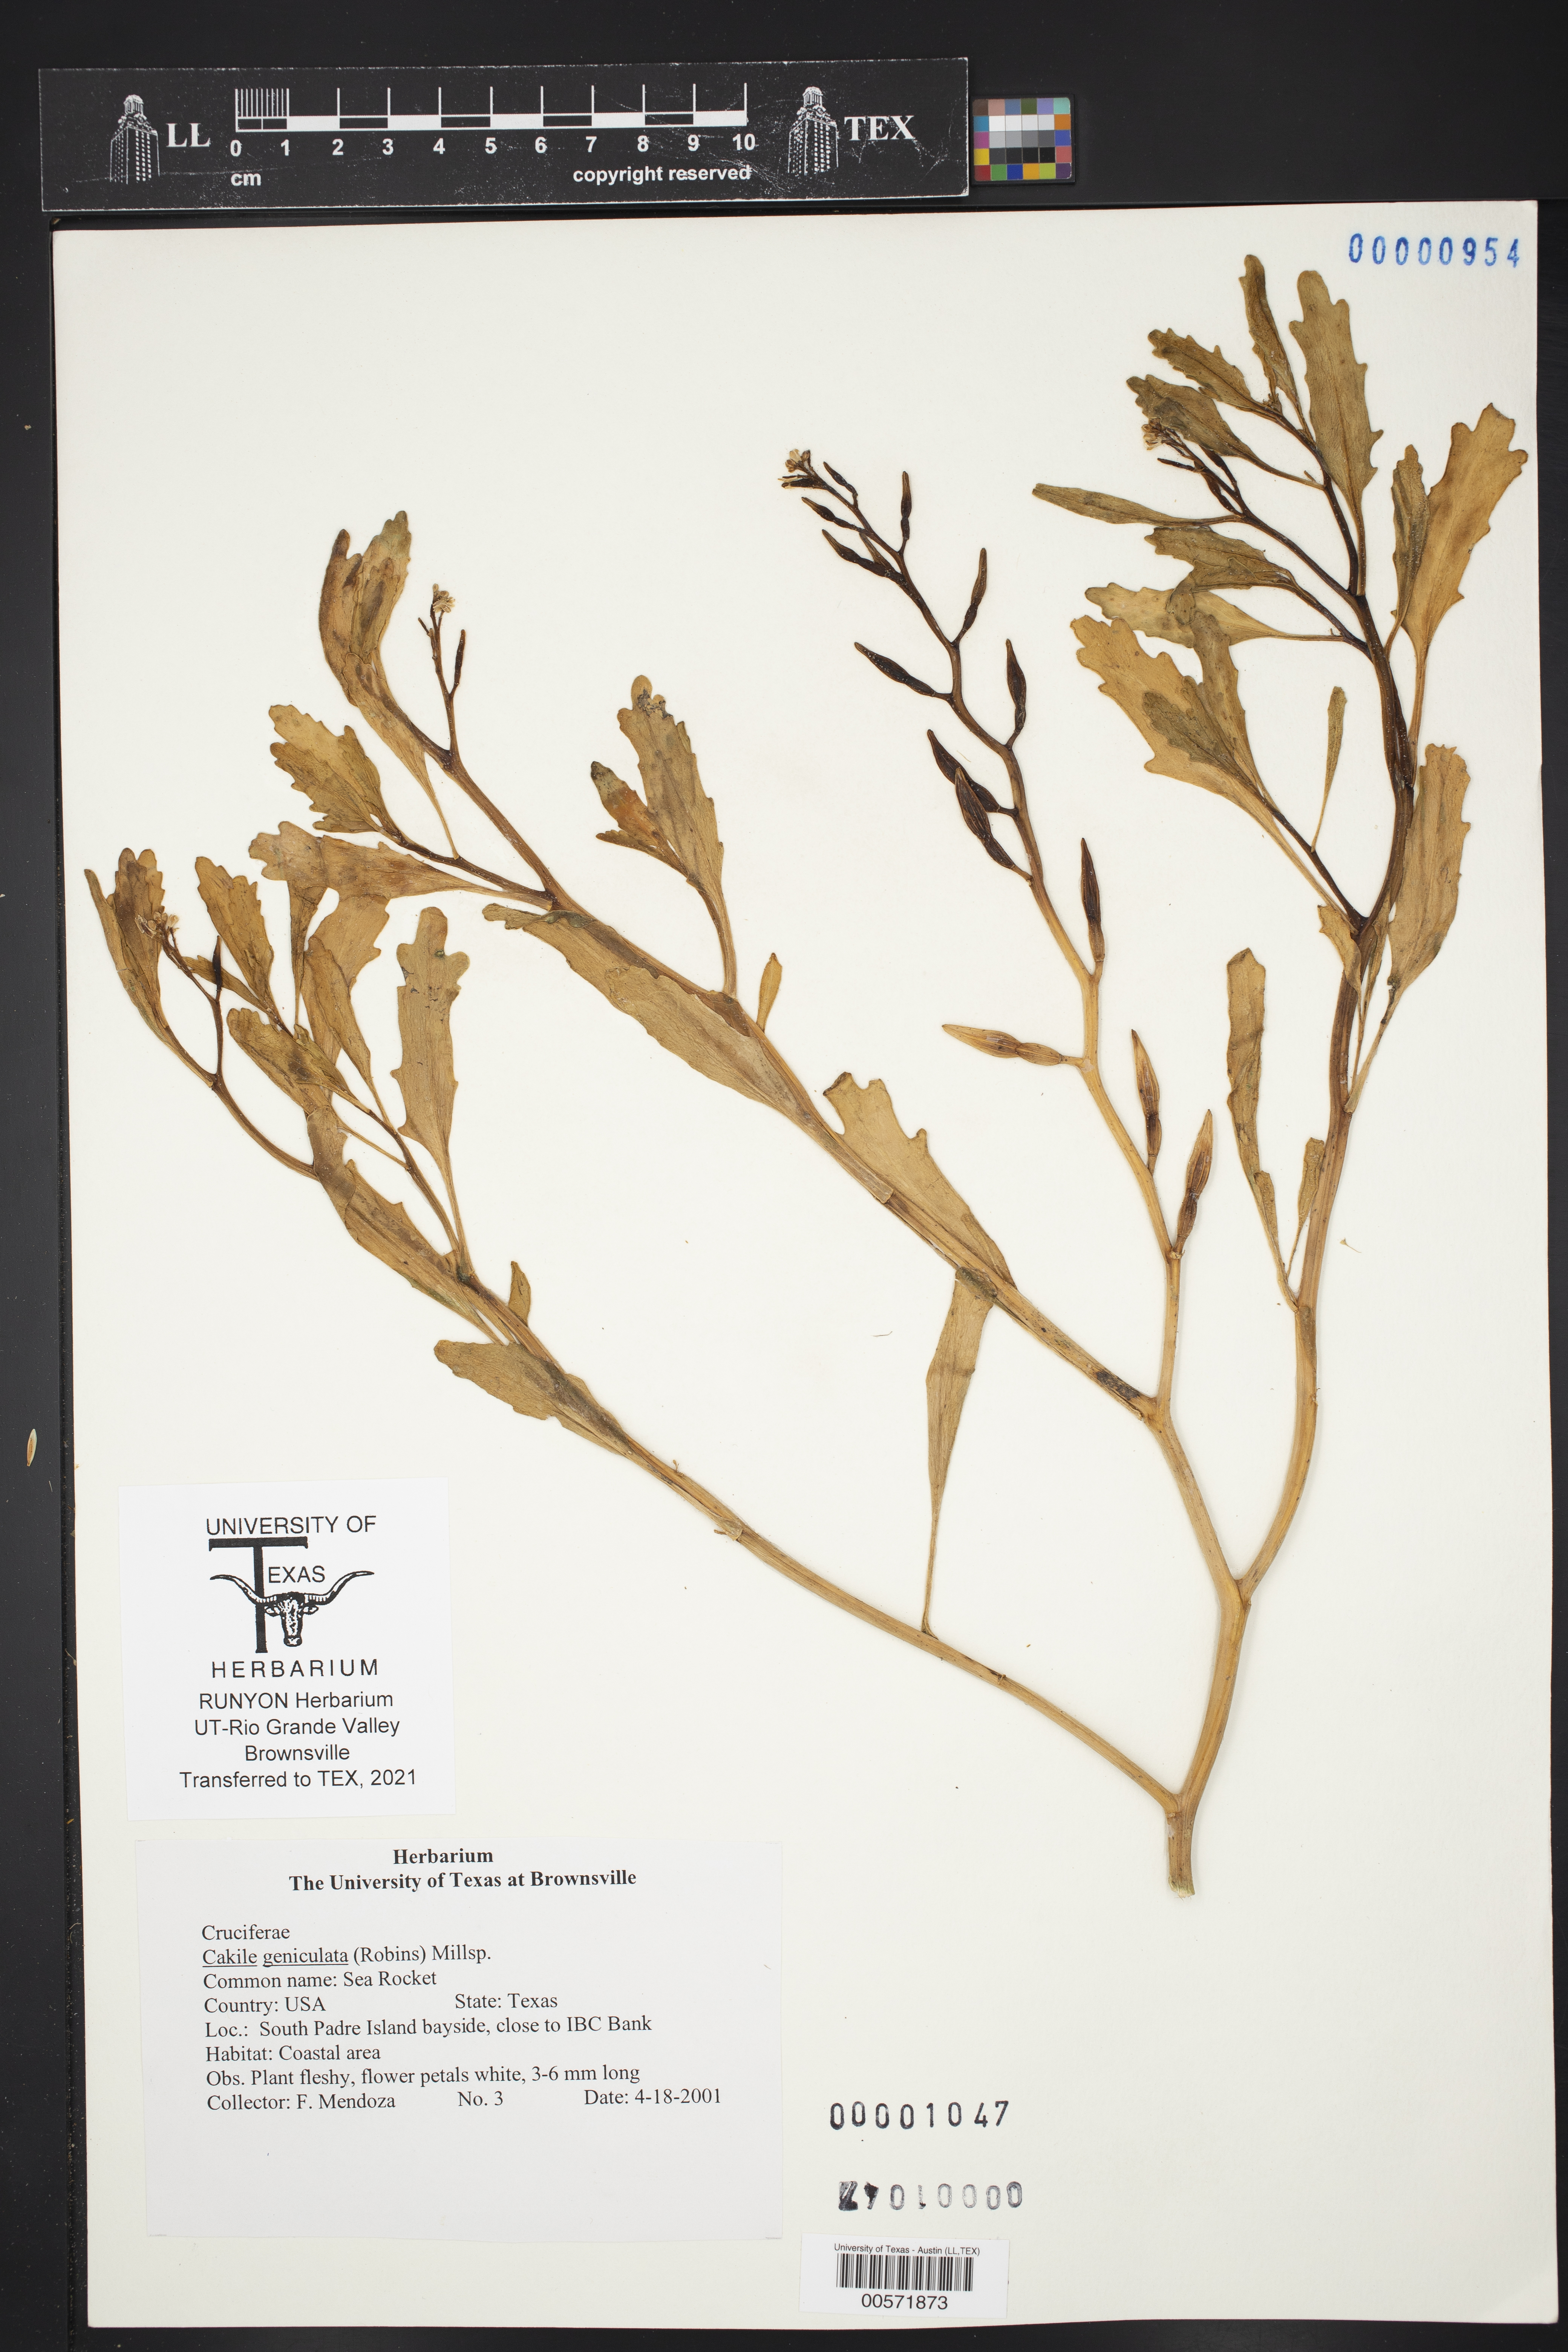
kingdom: Plantae
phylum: Tracheophyta
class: Magnoliopsida
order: Brassicales
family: Brassicaceae
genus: Cakile
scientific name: Cakile geniculata
